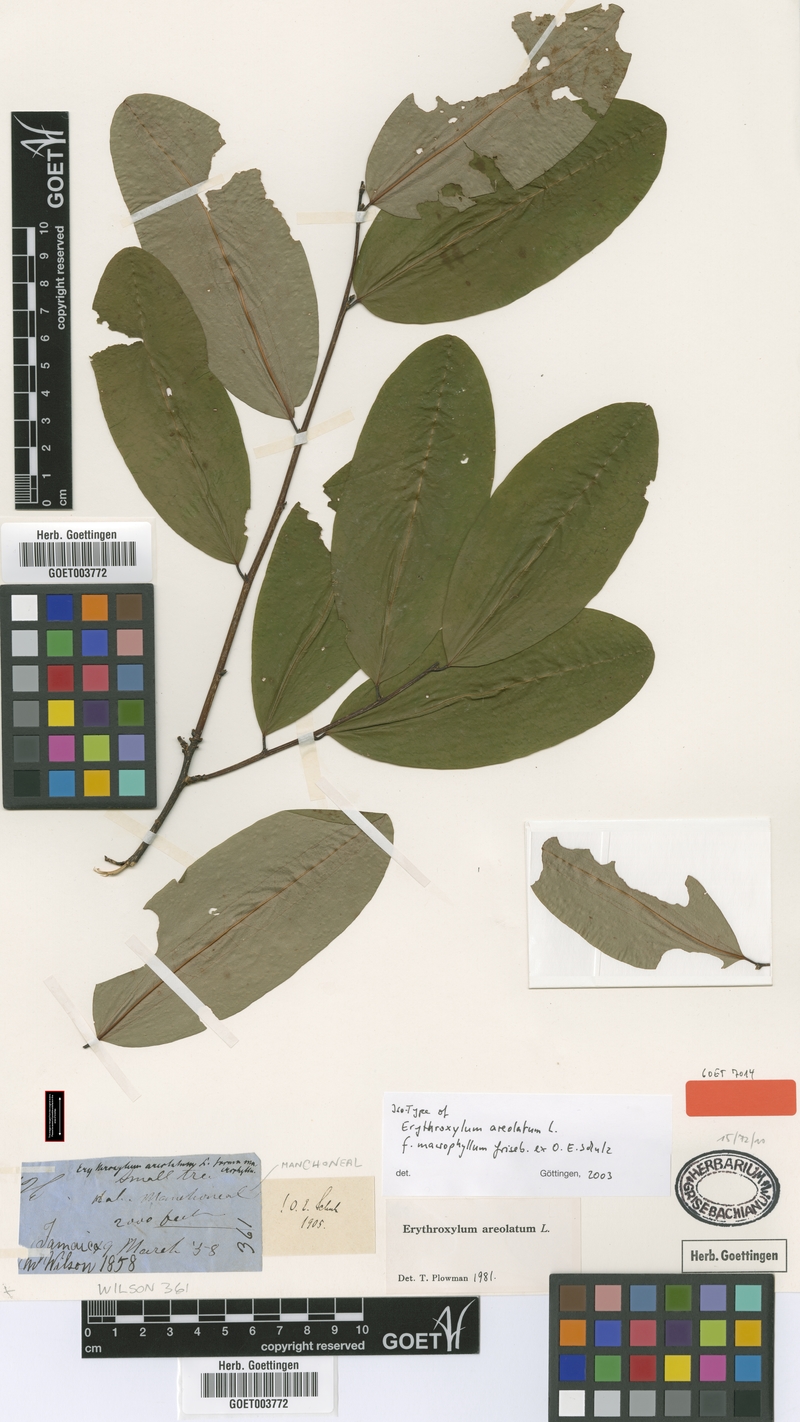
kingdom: Plantae
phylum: Tracheophyta
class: Magnoliopsida
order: Malpighiales
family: Erythroxylaceae
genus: Erythroxylum
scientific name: Erythroxylum areolatum
